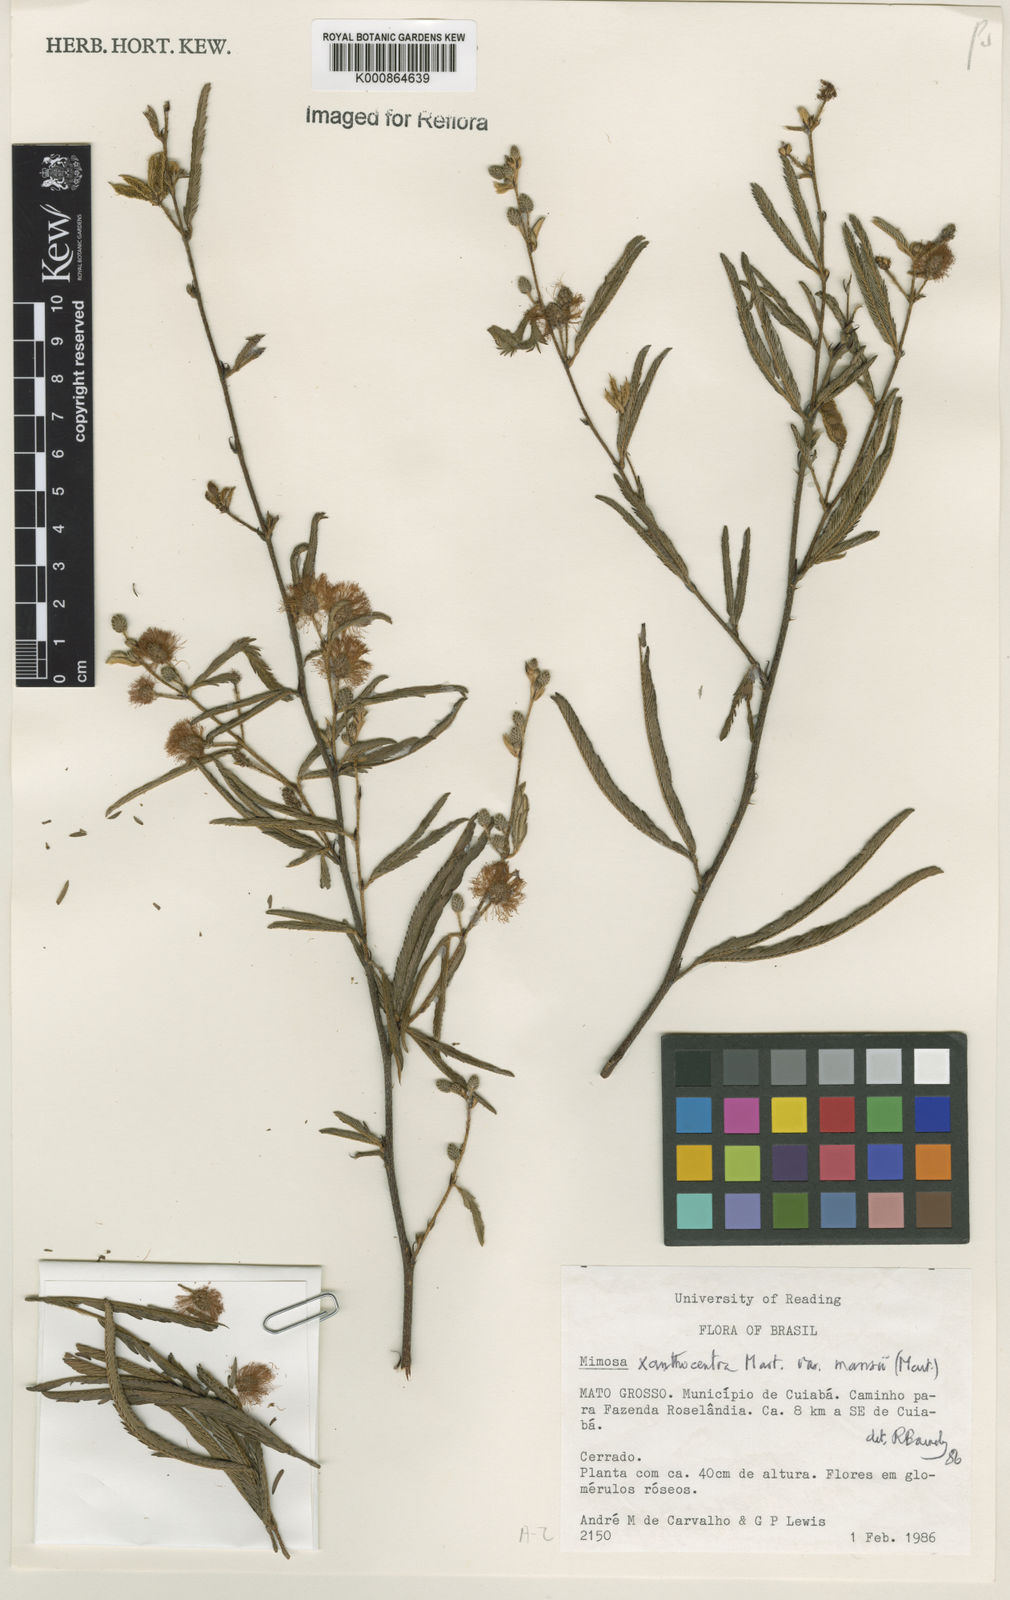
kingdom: Plantae
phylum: Tracheophyta
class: Magnoliopsida
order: Fabales
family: Fabaceae
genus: Mimosa
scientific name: Mimosa xanthocentra
